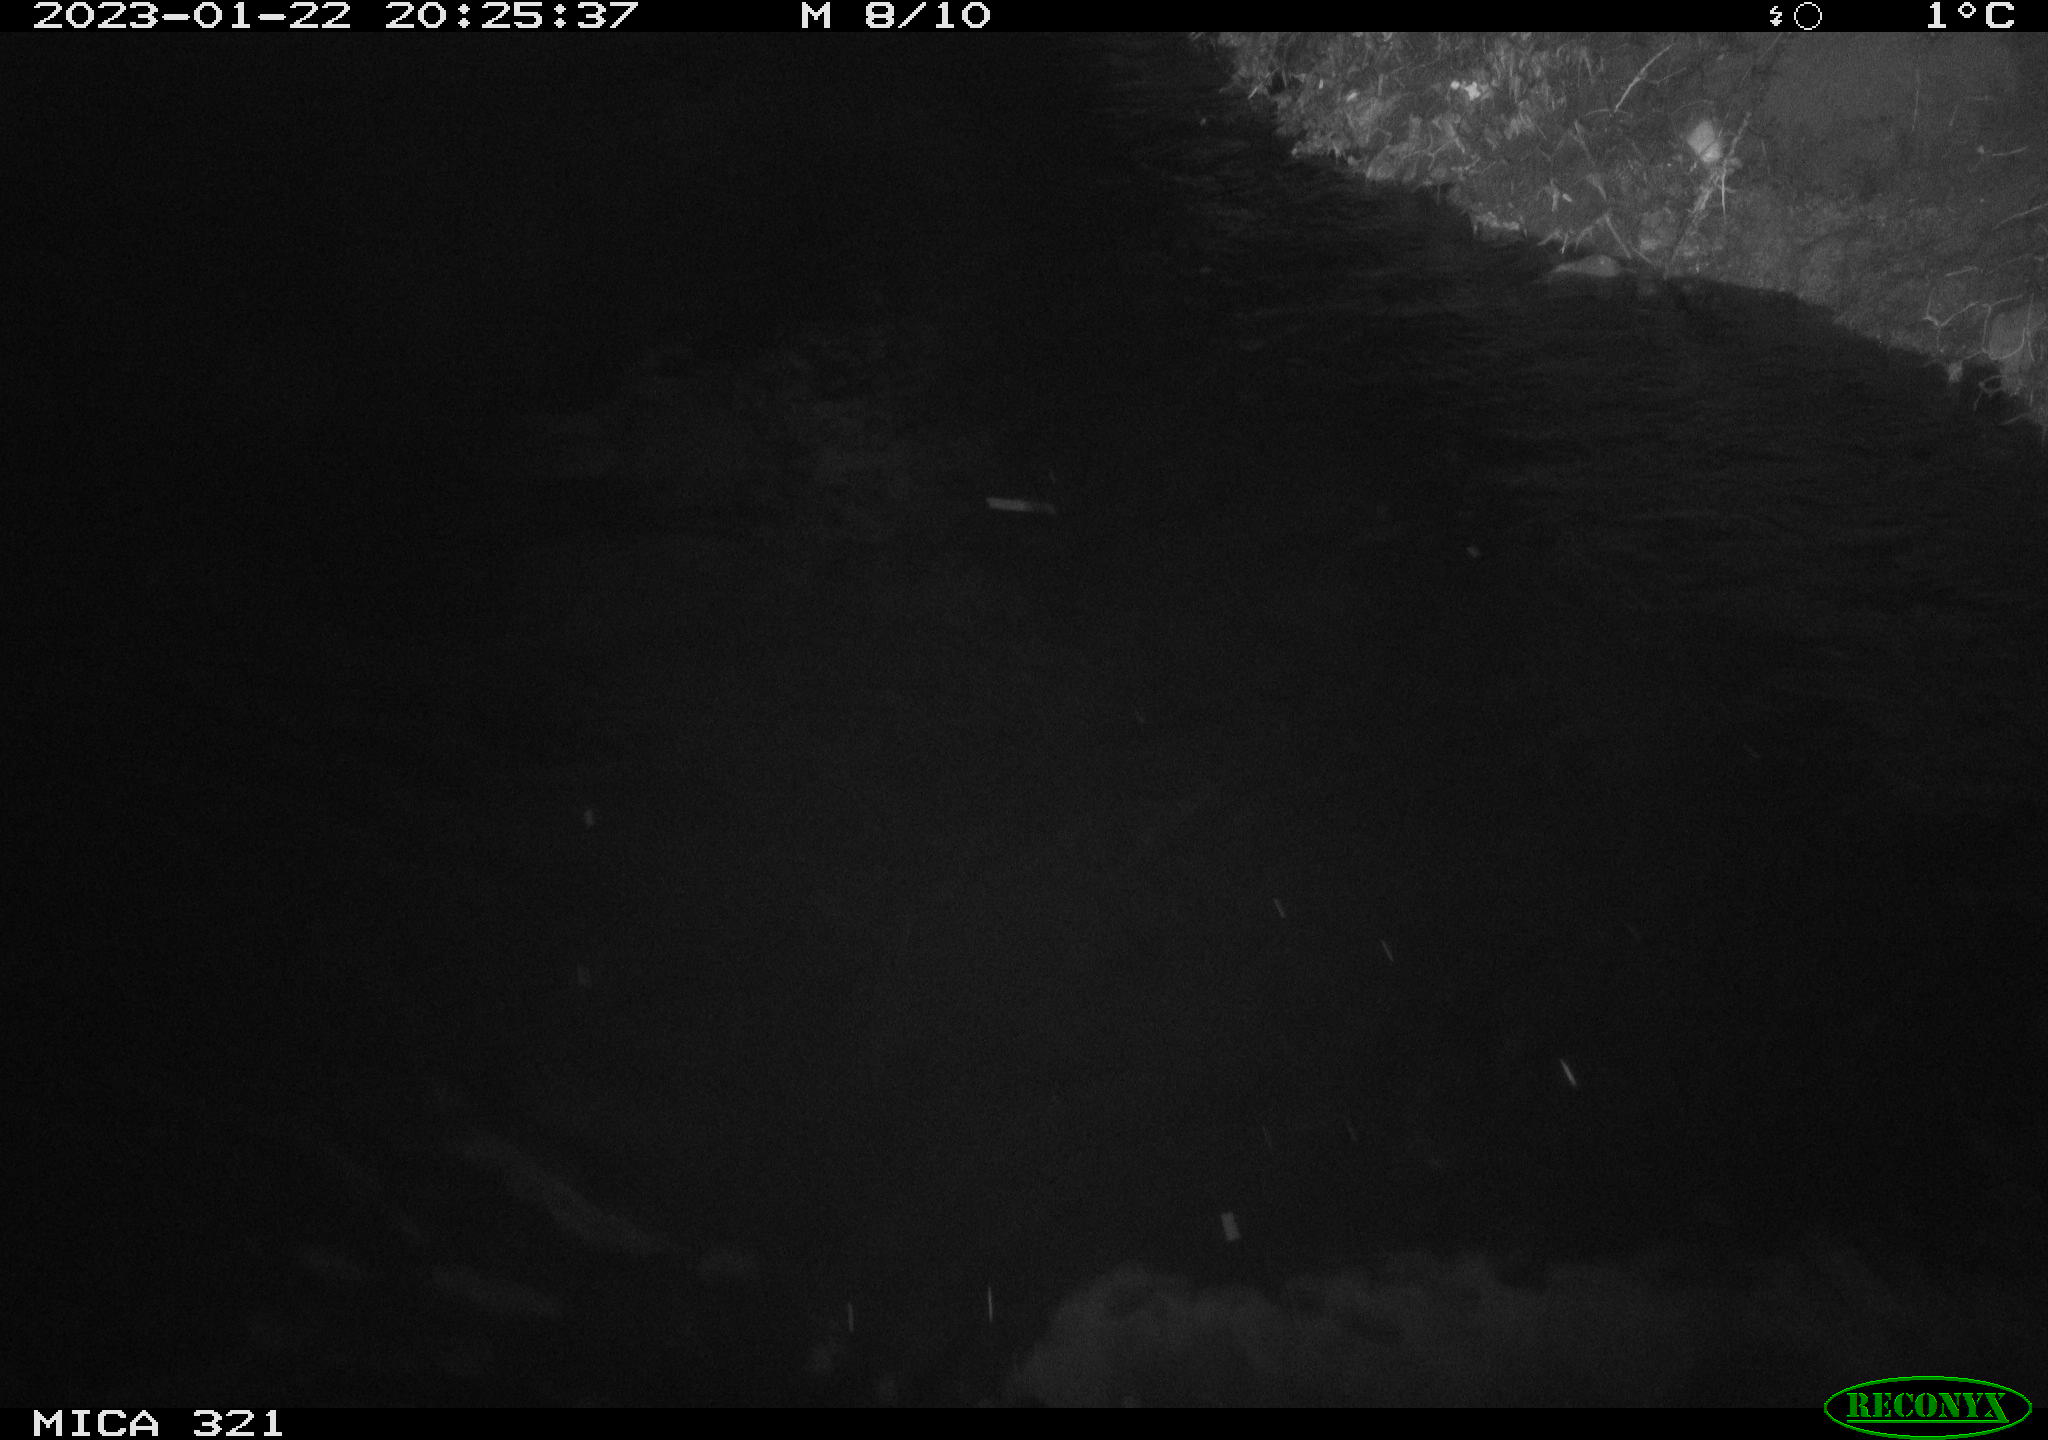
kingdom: Animalia
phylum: Chordata
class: Aves
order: Anseriformes
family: Anatidae
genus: Anas
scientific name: Anas
